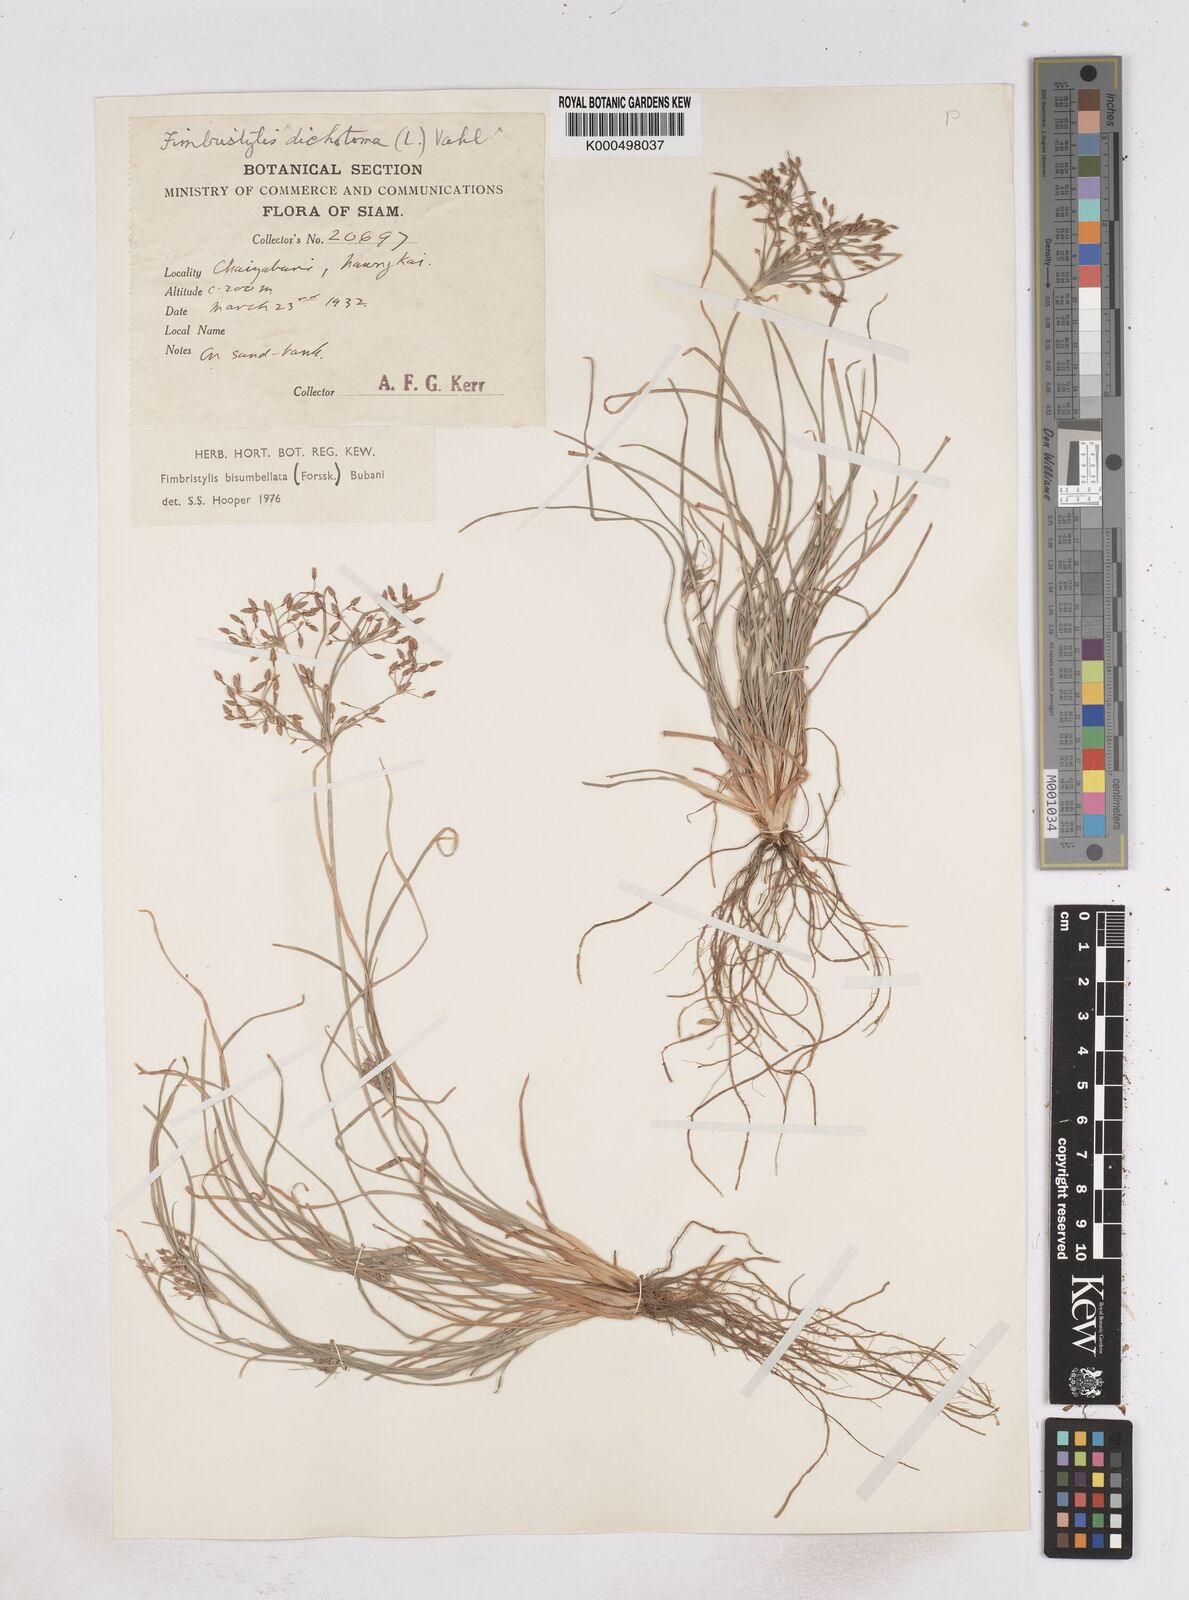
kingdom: Plantae
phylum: Tracheophyta
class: Liliopsida
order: Poales
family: Cyperaceae
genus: Fimbristylis
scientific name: Fimbristylis bisumbellata
